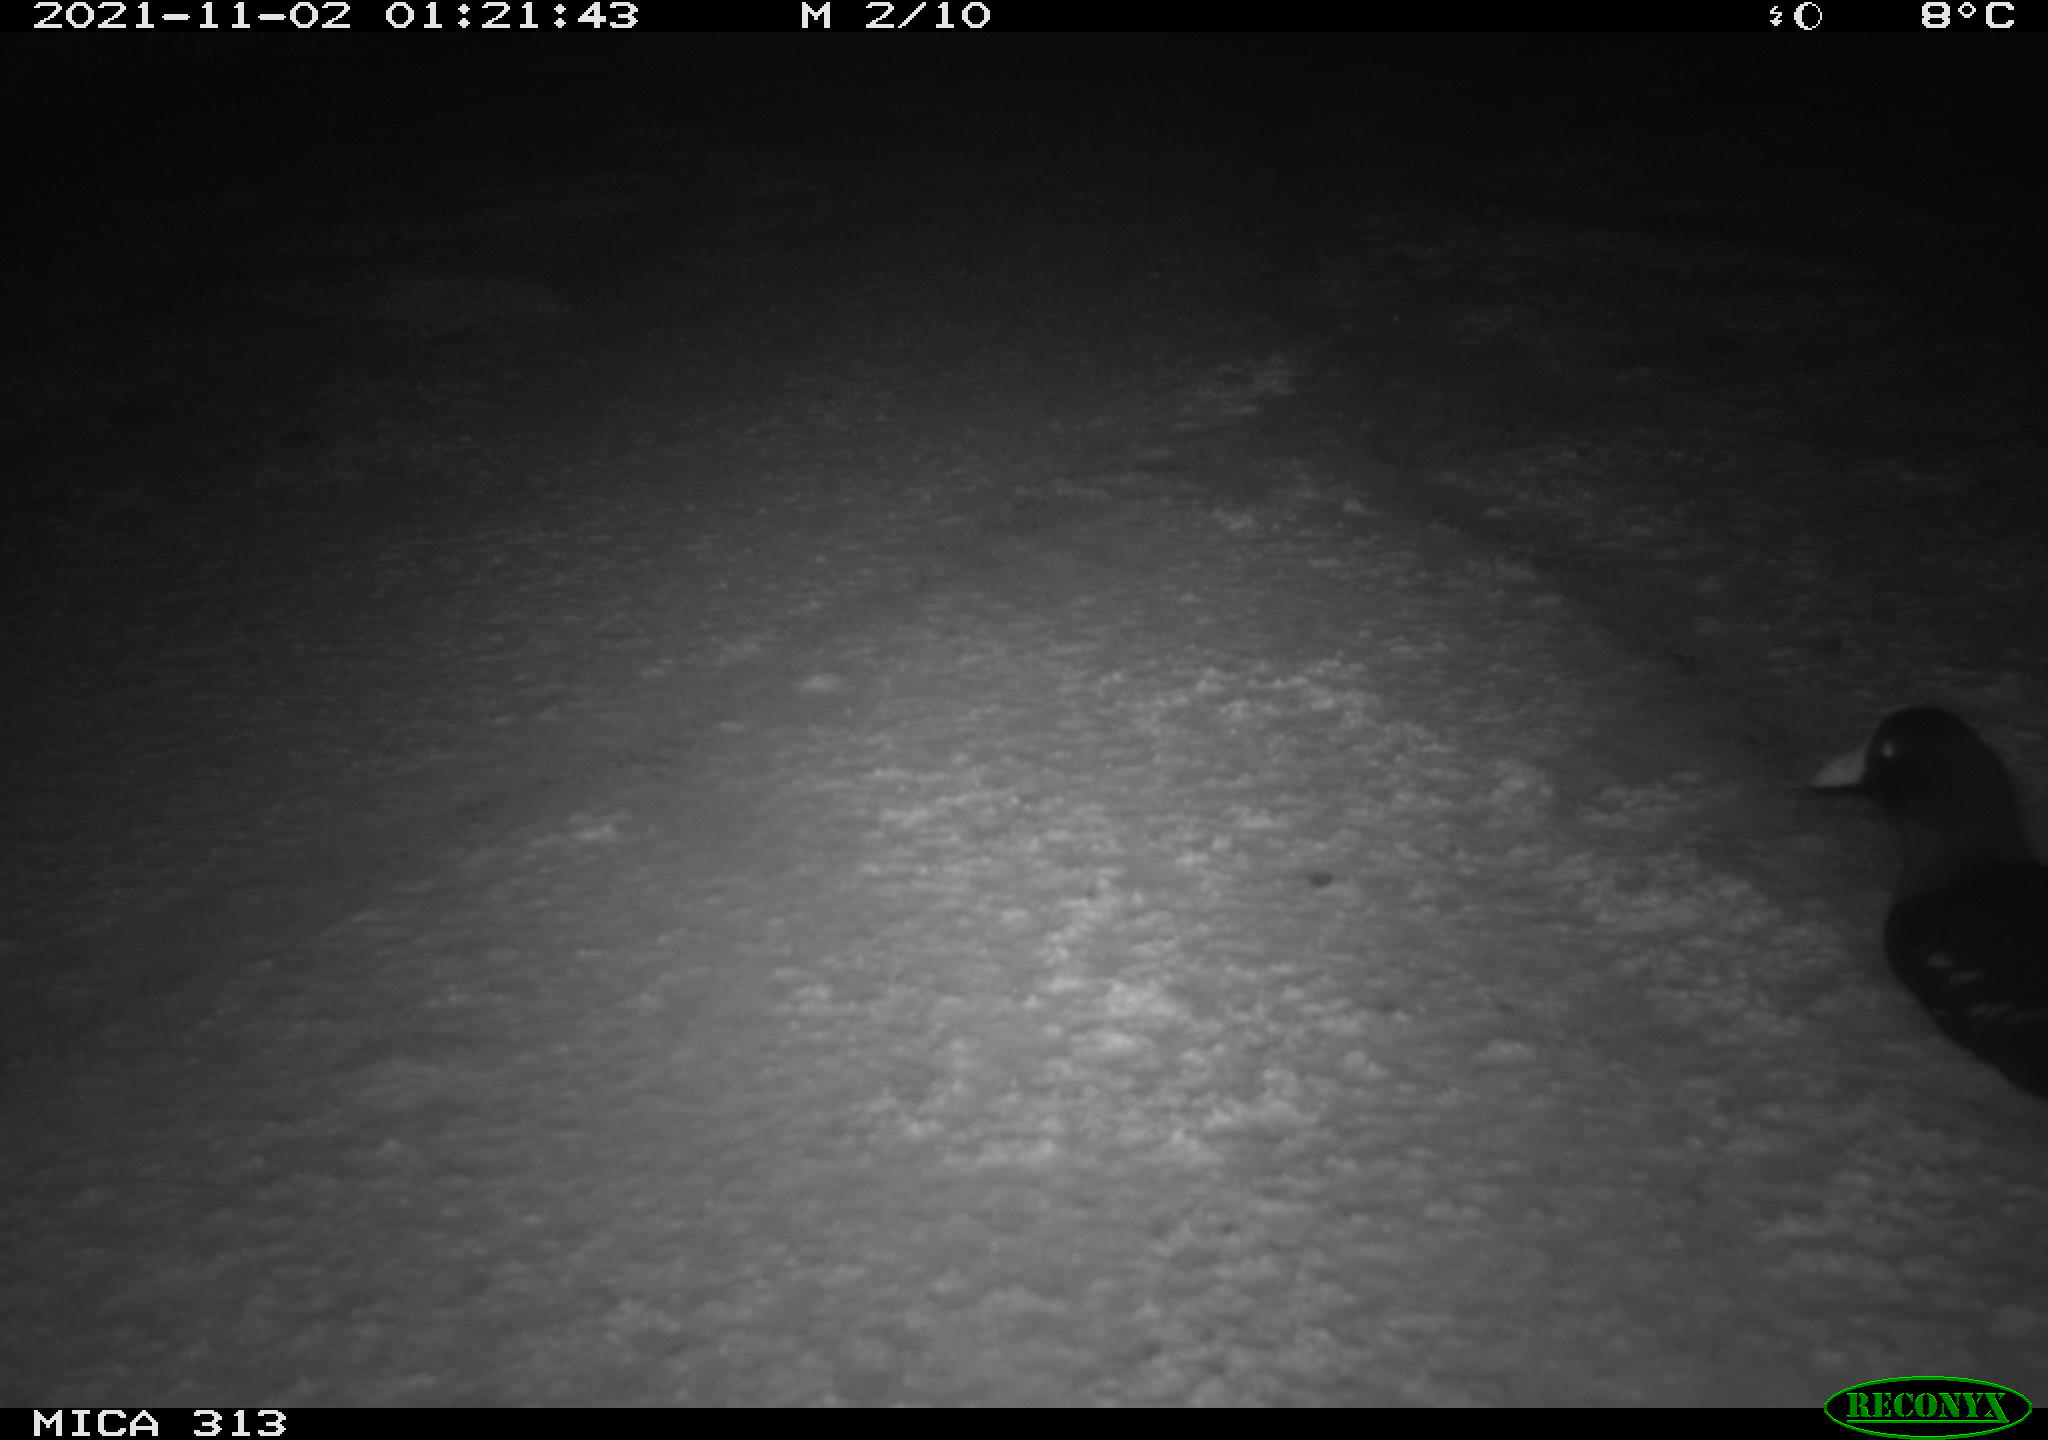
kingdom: Animalia
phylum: Chordata
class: Aves
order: Gruiformes
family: Rallidae
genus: Gallinula
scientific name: Gallinula chloropus
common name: Common moorhen
